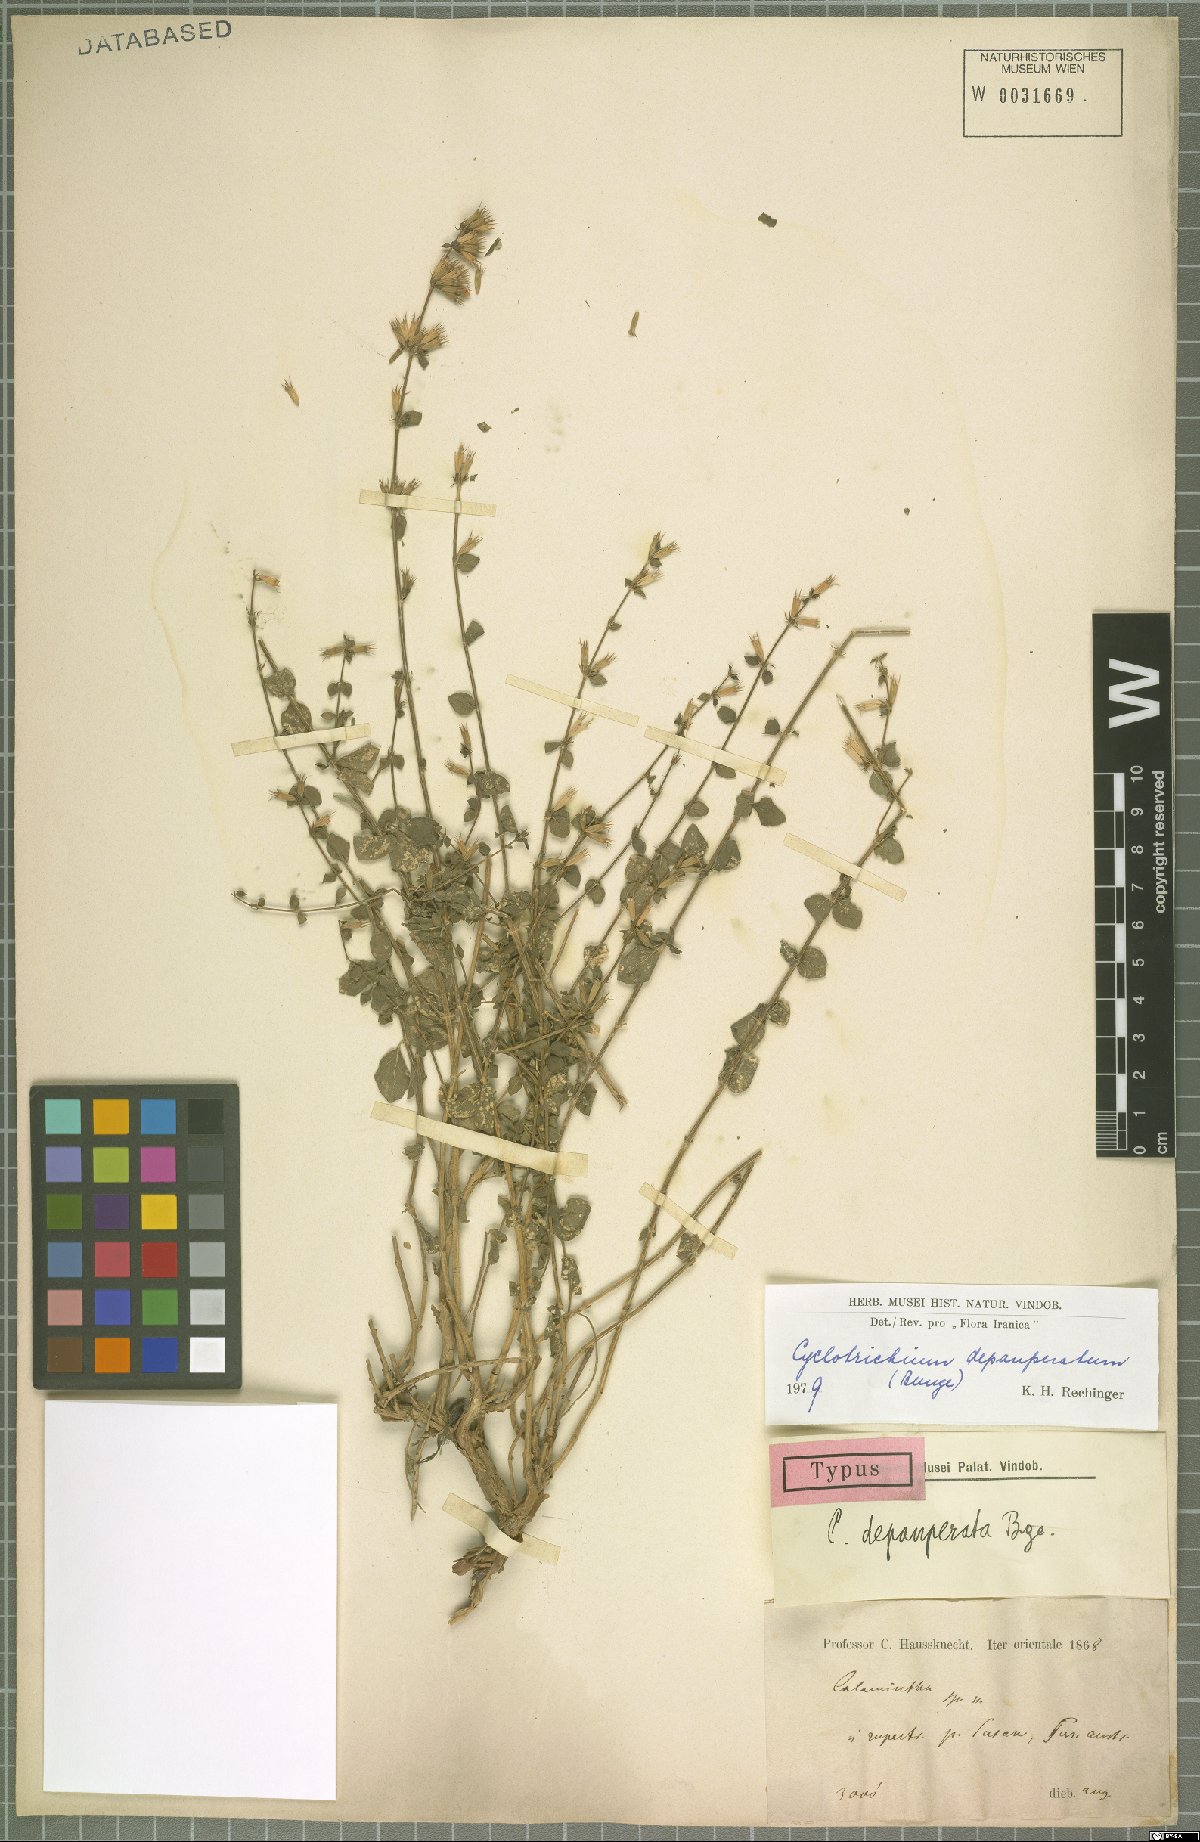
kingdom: Plantae
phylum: Tracheophyta
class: Magnoliopsida
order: Lamiales
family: Lamiaceae
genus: Cyclotrichium
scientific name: Cyclotrichium depauperatum
